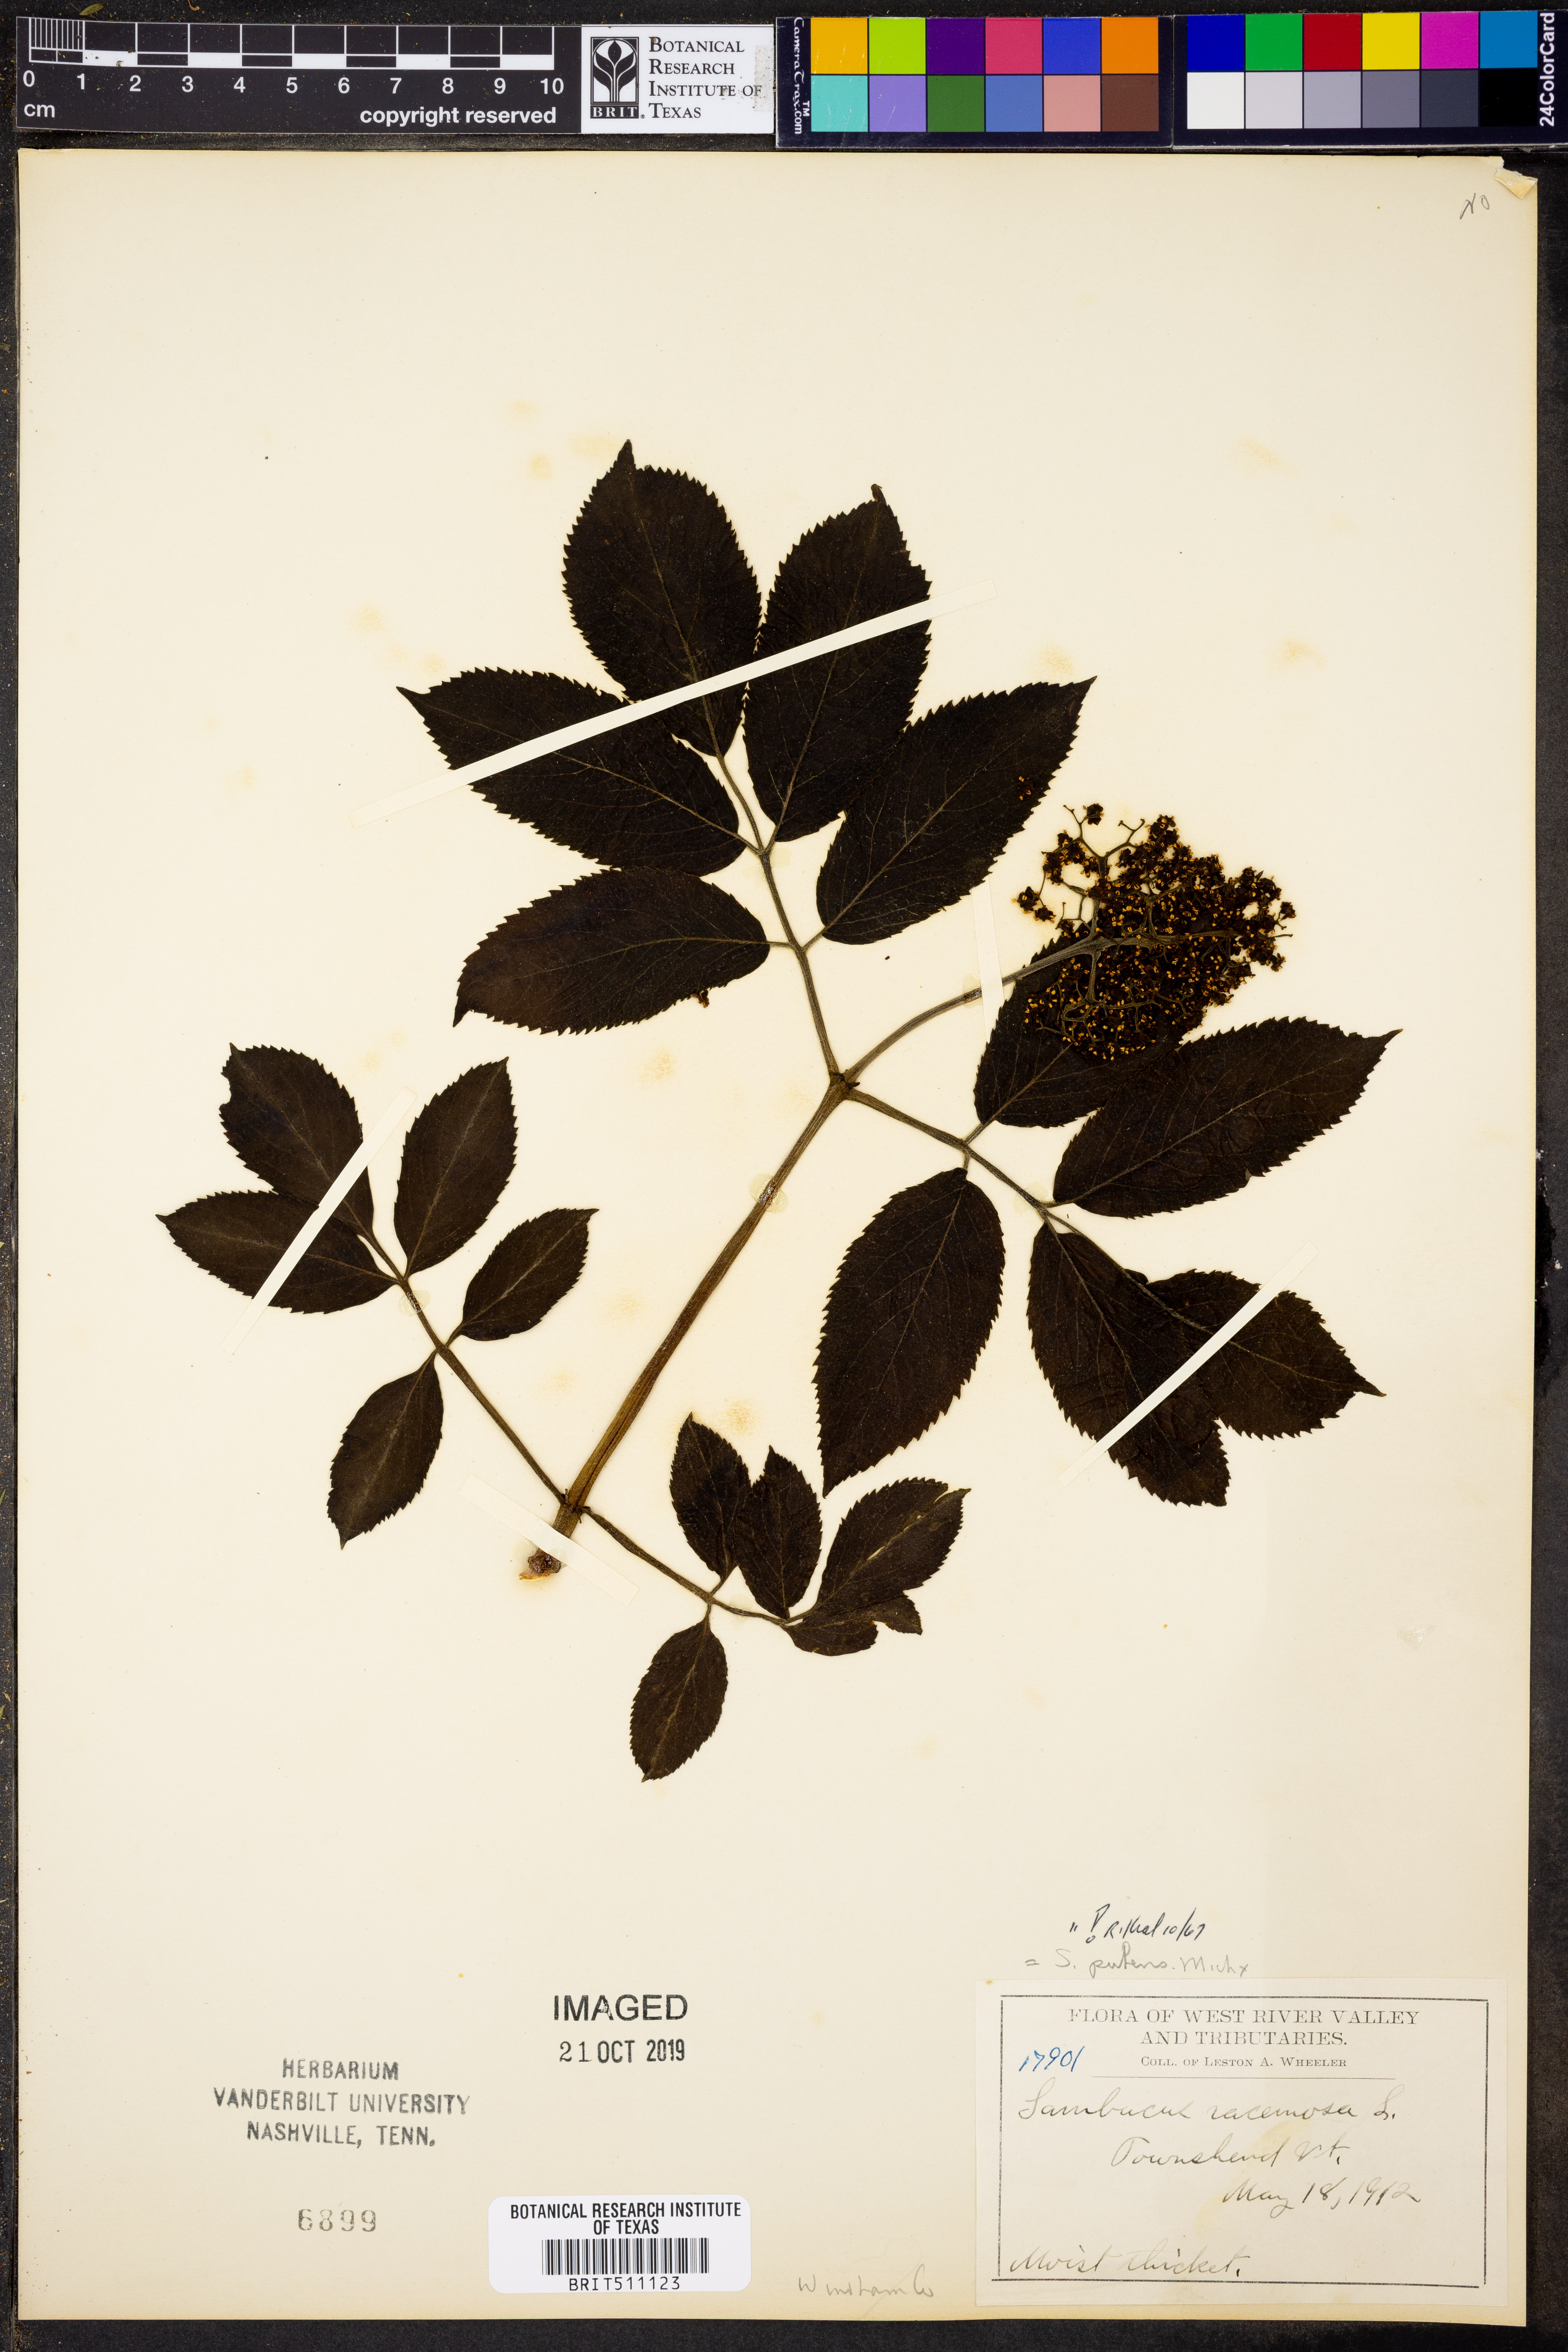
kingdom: Plantae
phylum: Tracheophyta
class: Magnoliopsida
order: Dipsacales
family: Viburnaceae
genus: Sambucus
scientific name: Sambucus racemosa
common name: Red-berried elder
